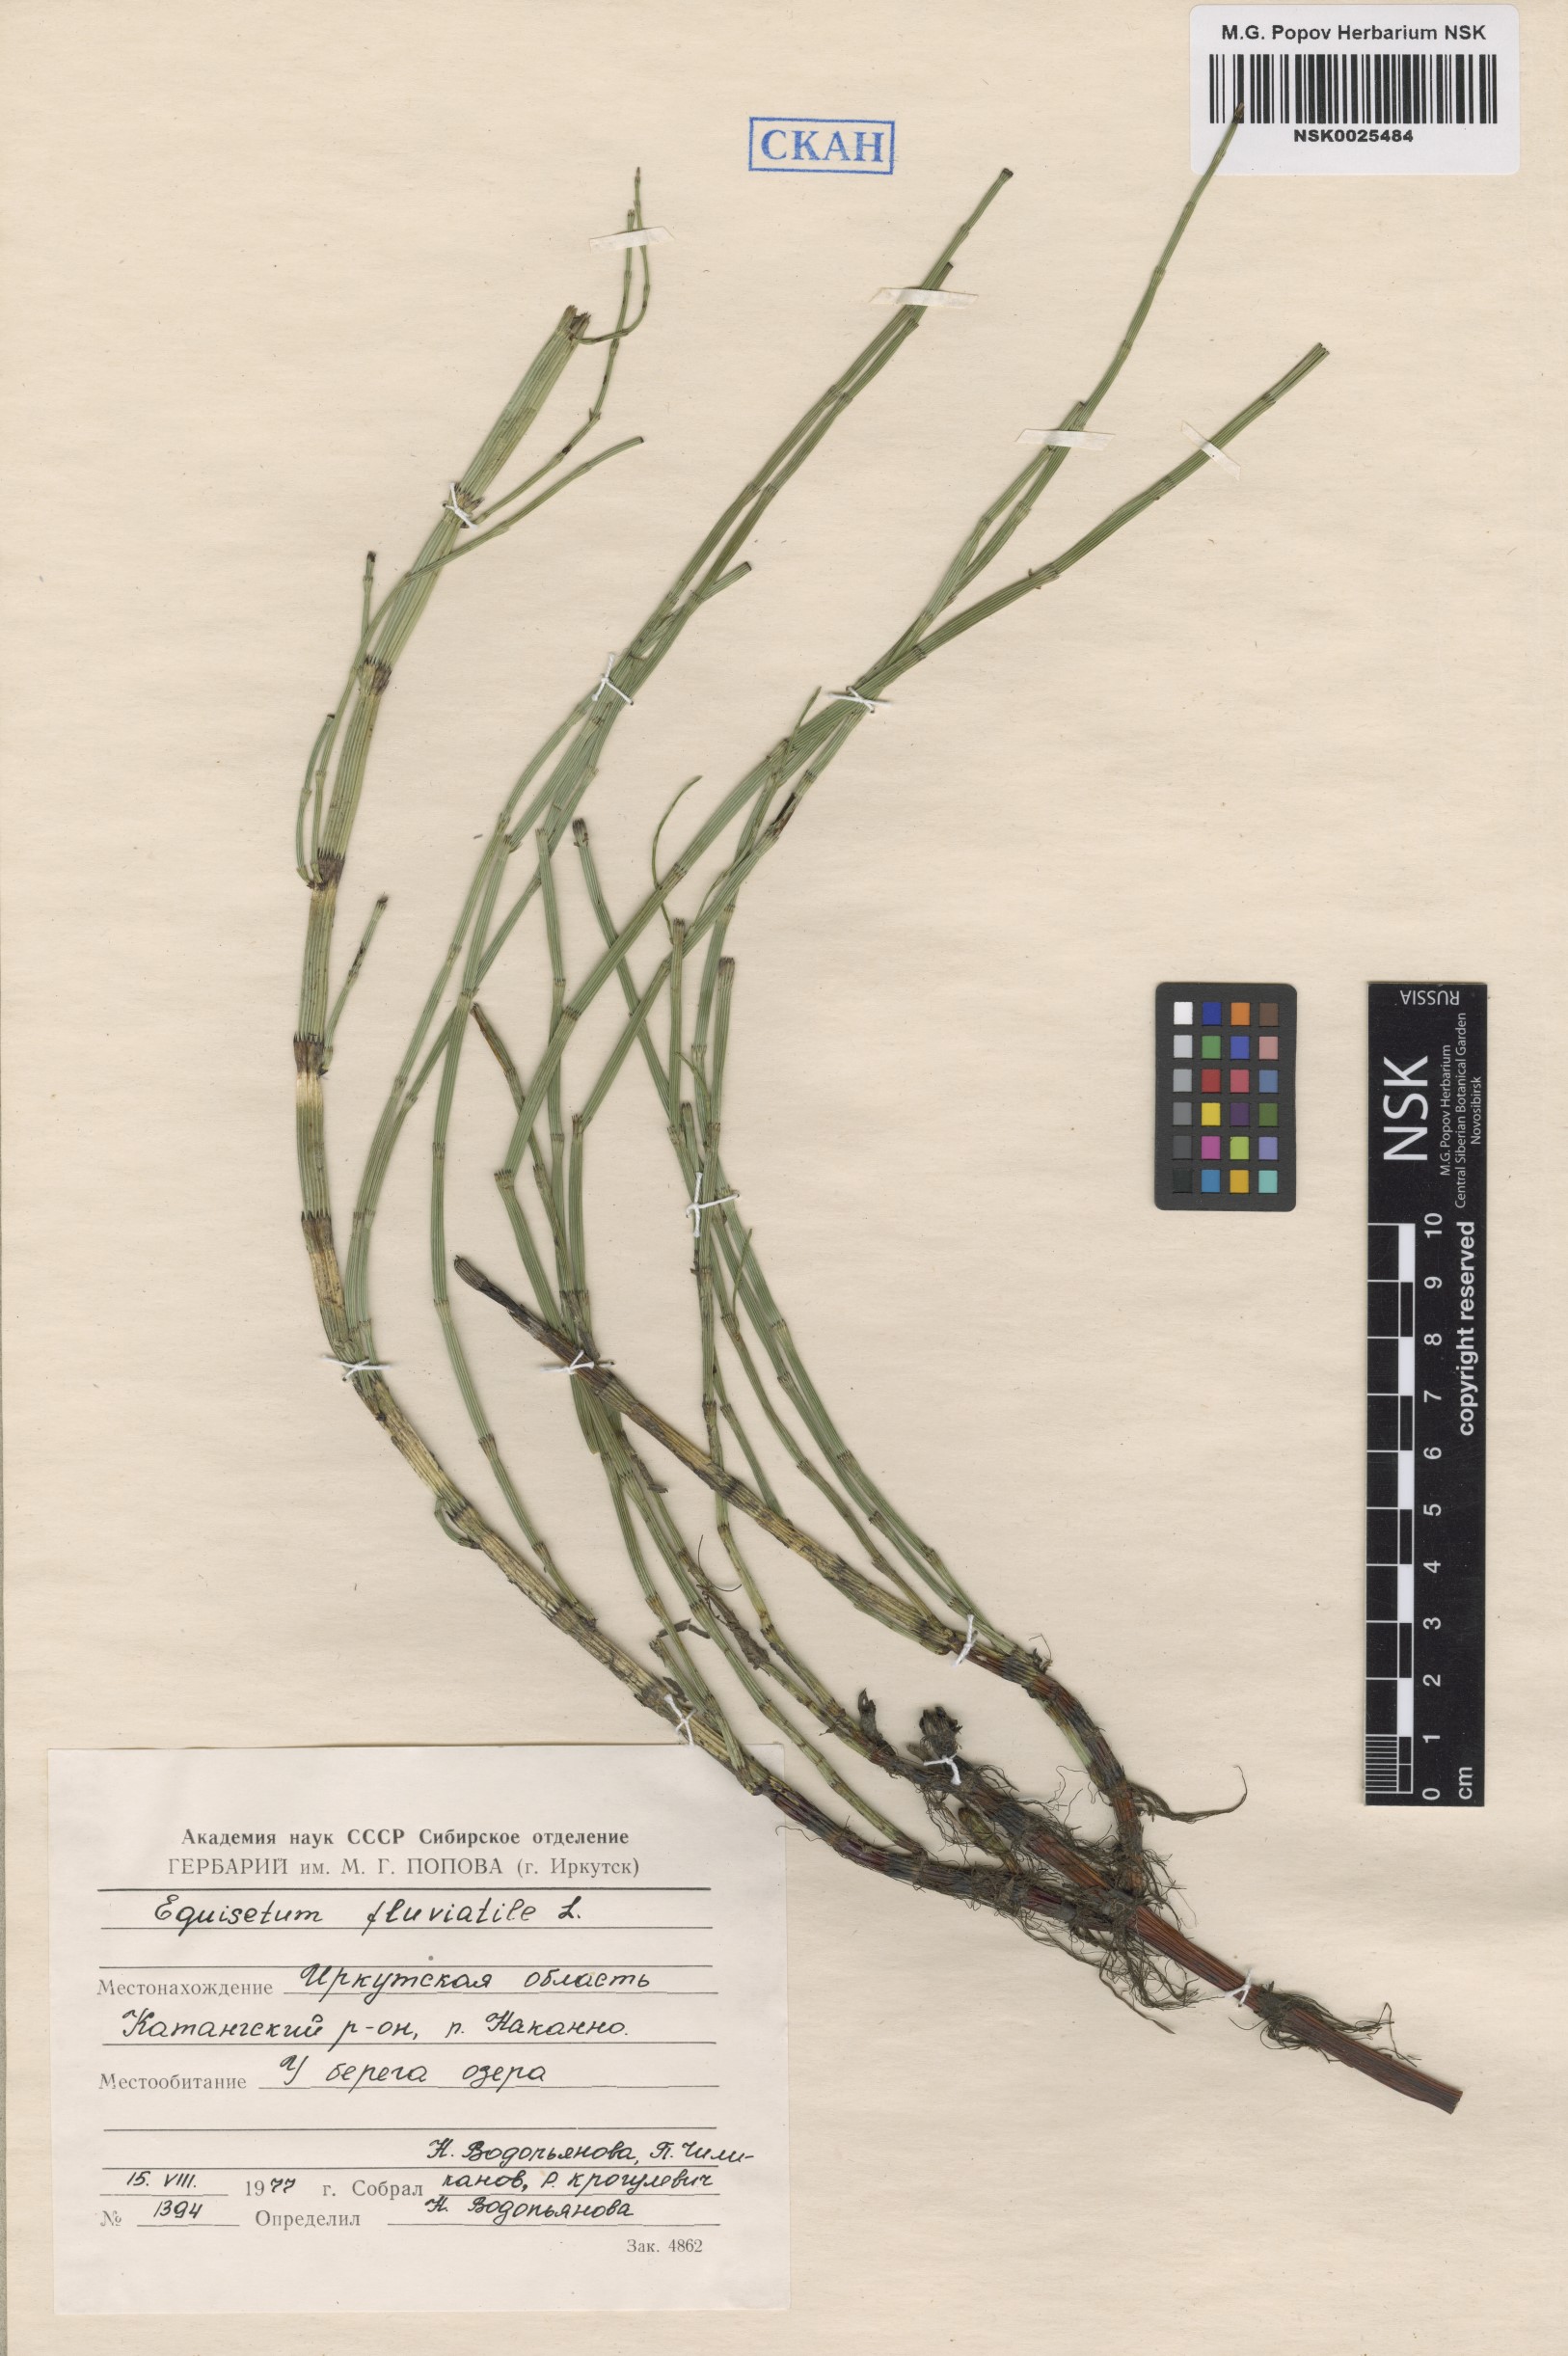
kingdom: Plantae
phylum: Tracheophyta
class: Polypodiopsida
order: Equisetales
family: Equisetaceae
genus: Equisetum
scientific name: Equisetum fluviatile
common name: Water horsetail
